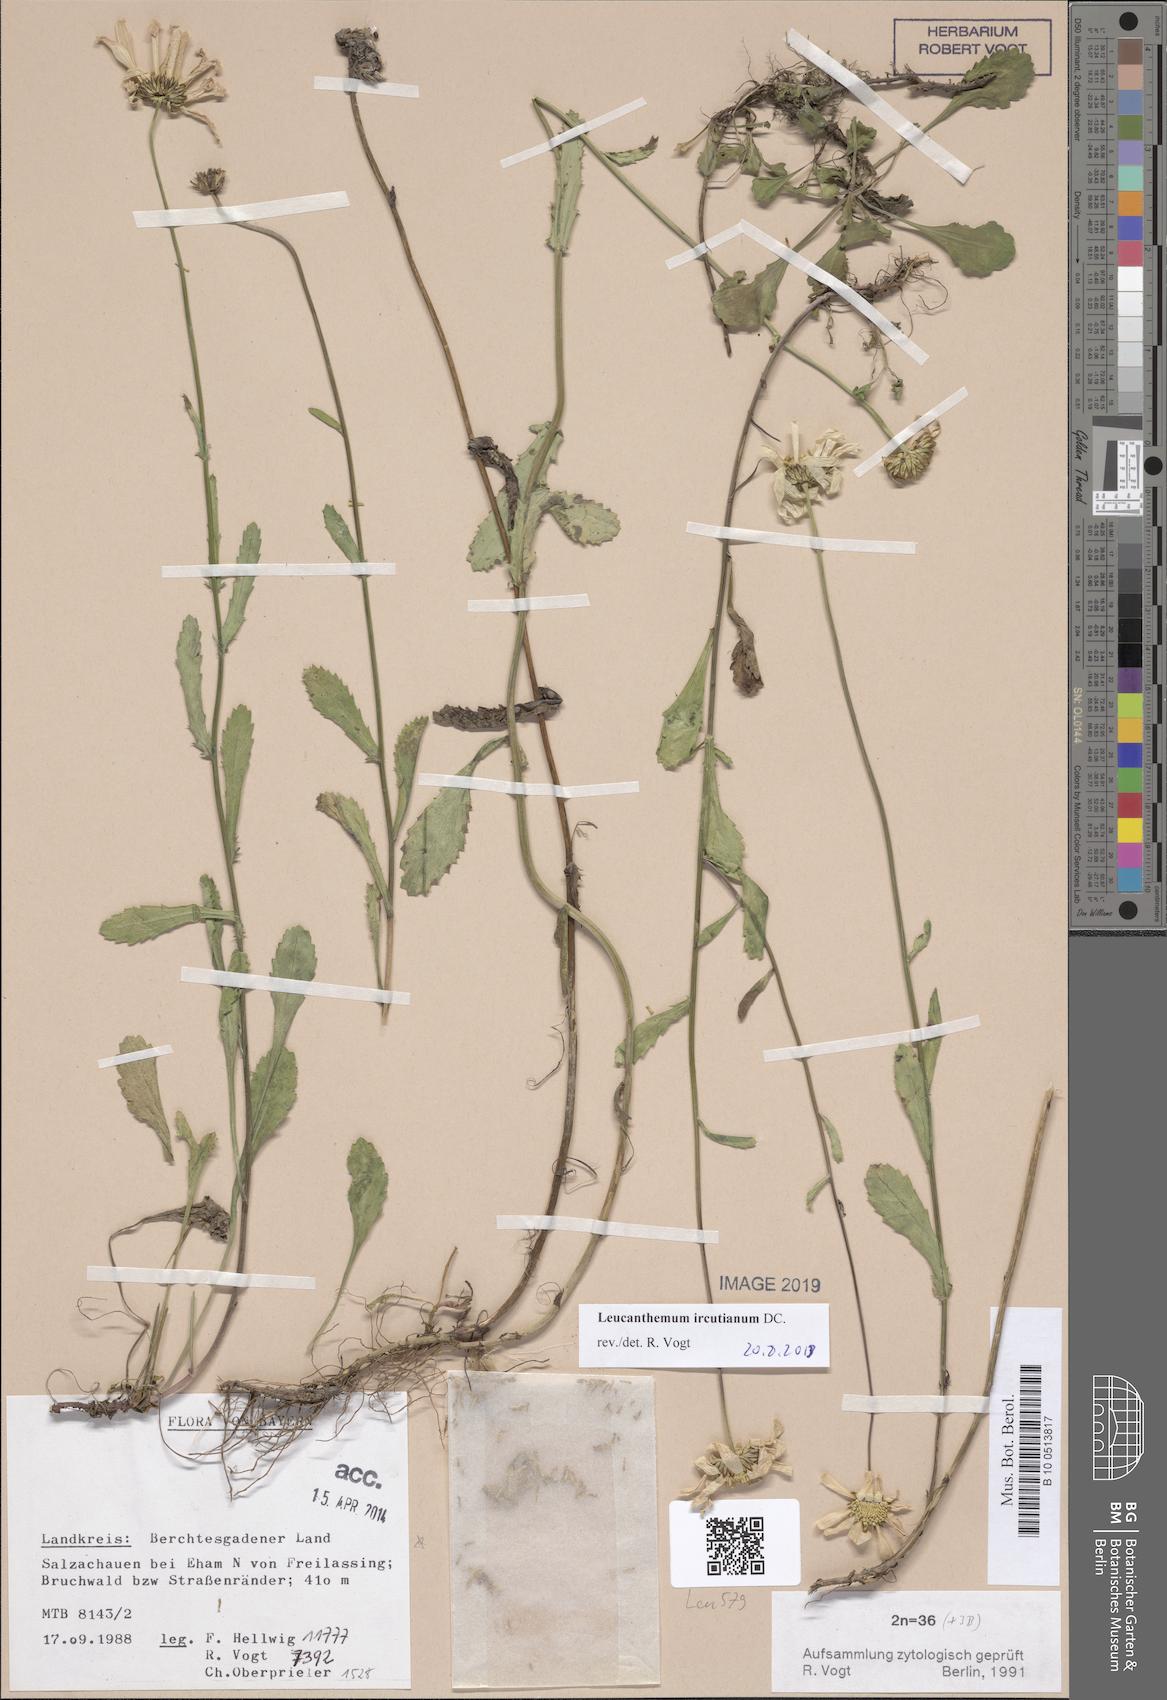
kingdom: Plantae
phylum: Tracheophyta
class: Magnoliopsida
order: Asterales
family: Asteraceae
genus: Leucanthemum
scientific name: Leucanthemum ircutianum
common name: Daisy
